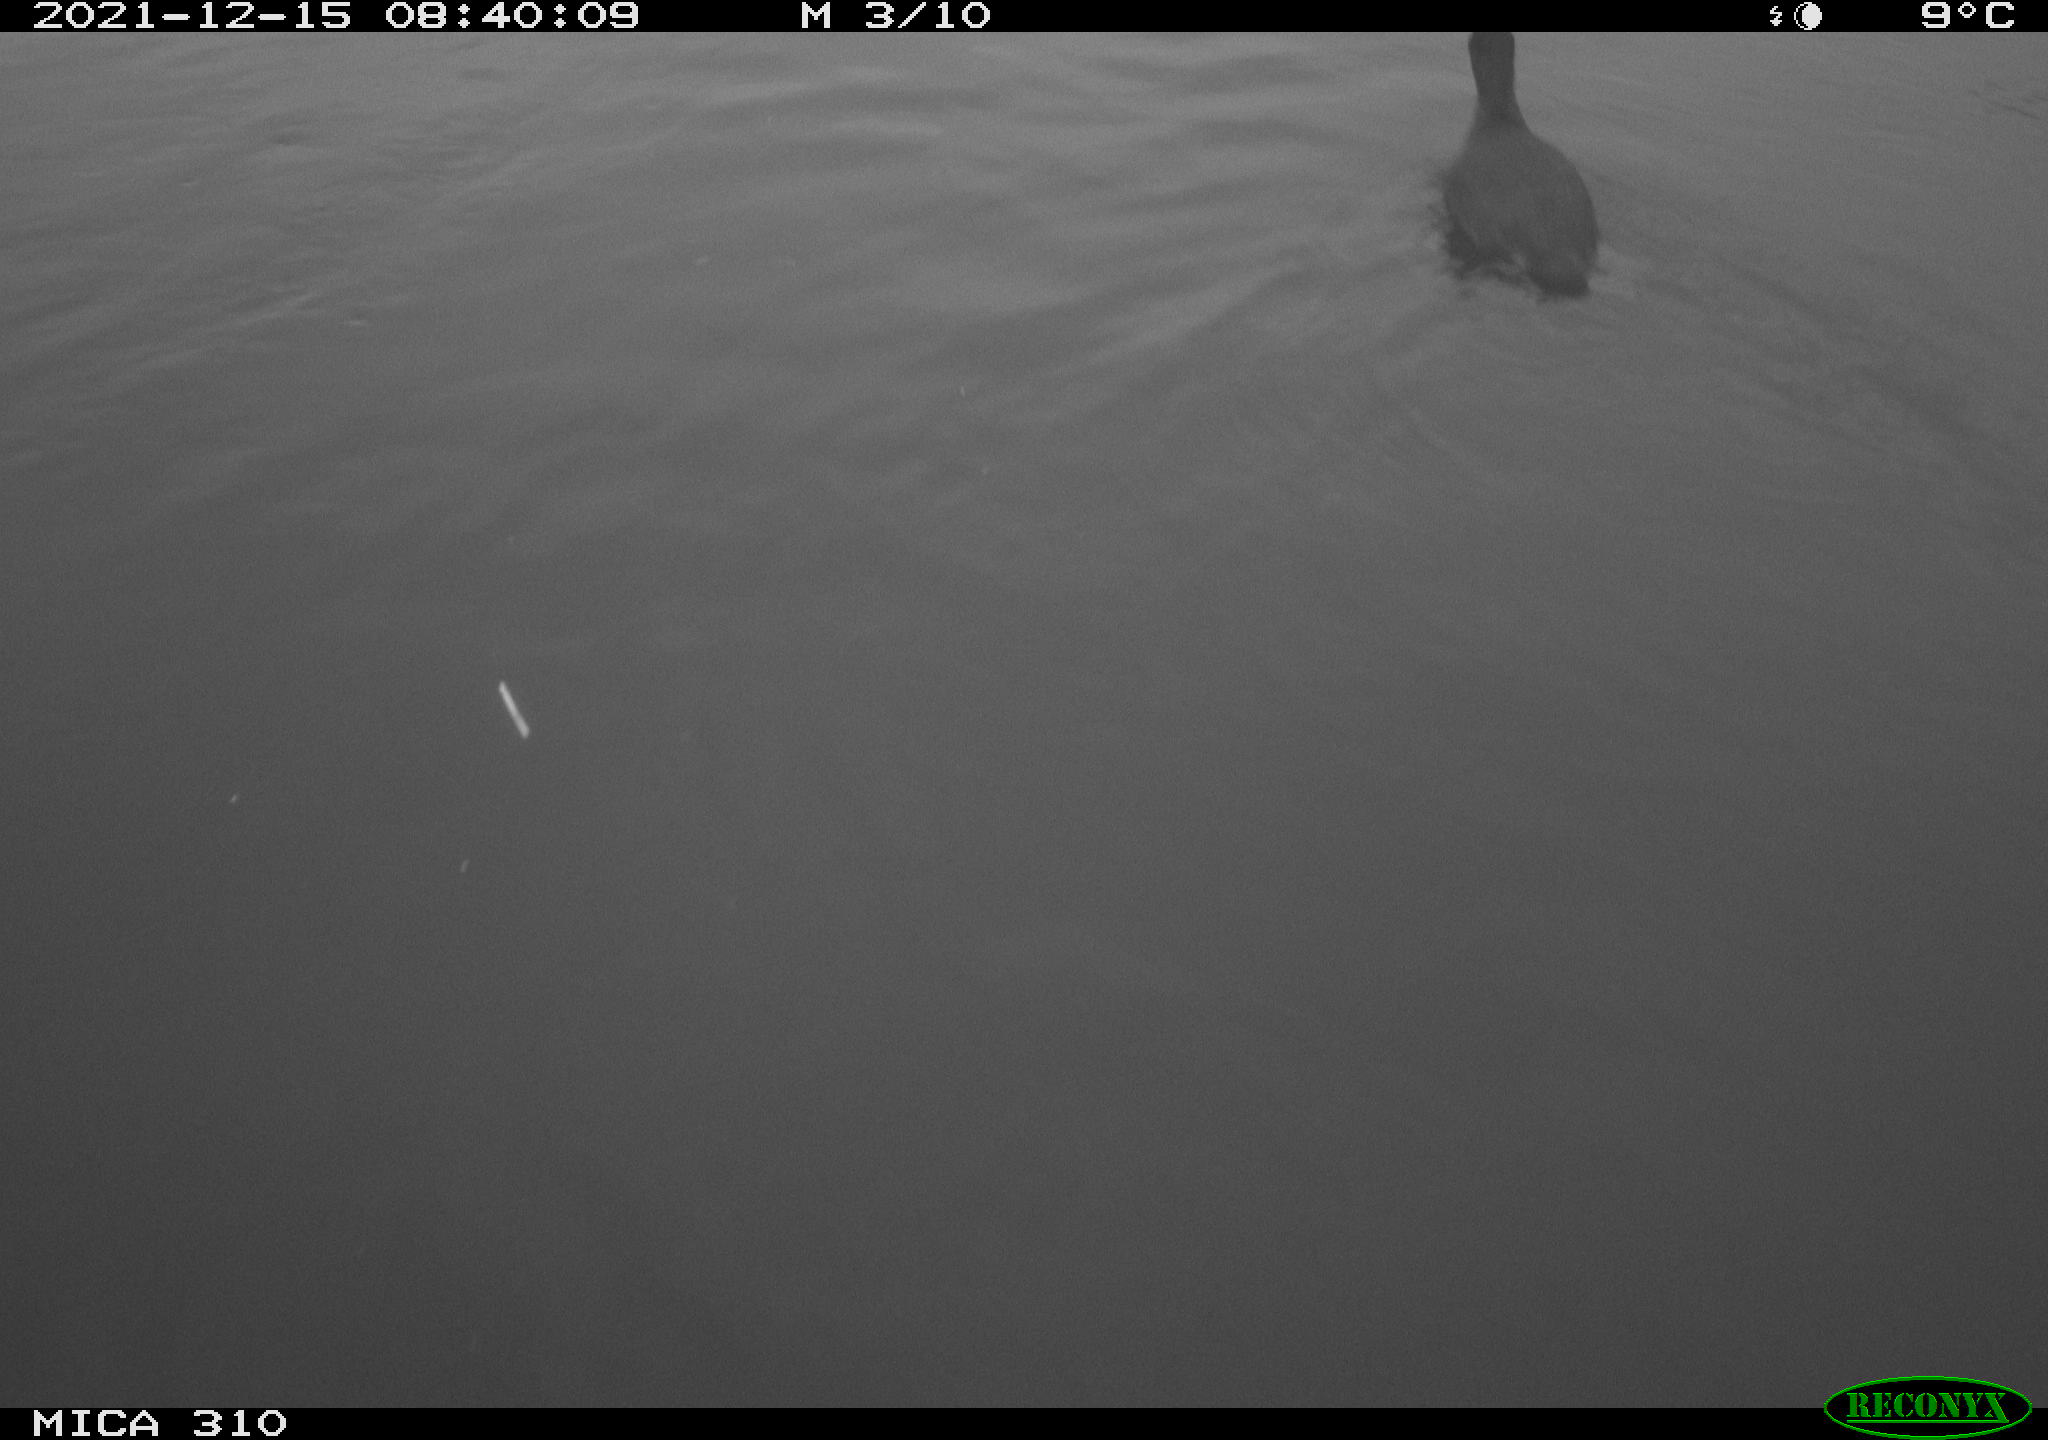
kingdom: Animalia
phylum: Chordata
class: Aves
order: Gruiformes
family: Rallidae
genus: Fulica
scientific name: Fulica atra
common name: Eurasian coot
